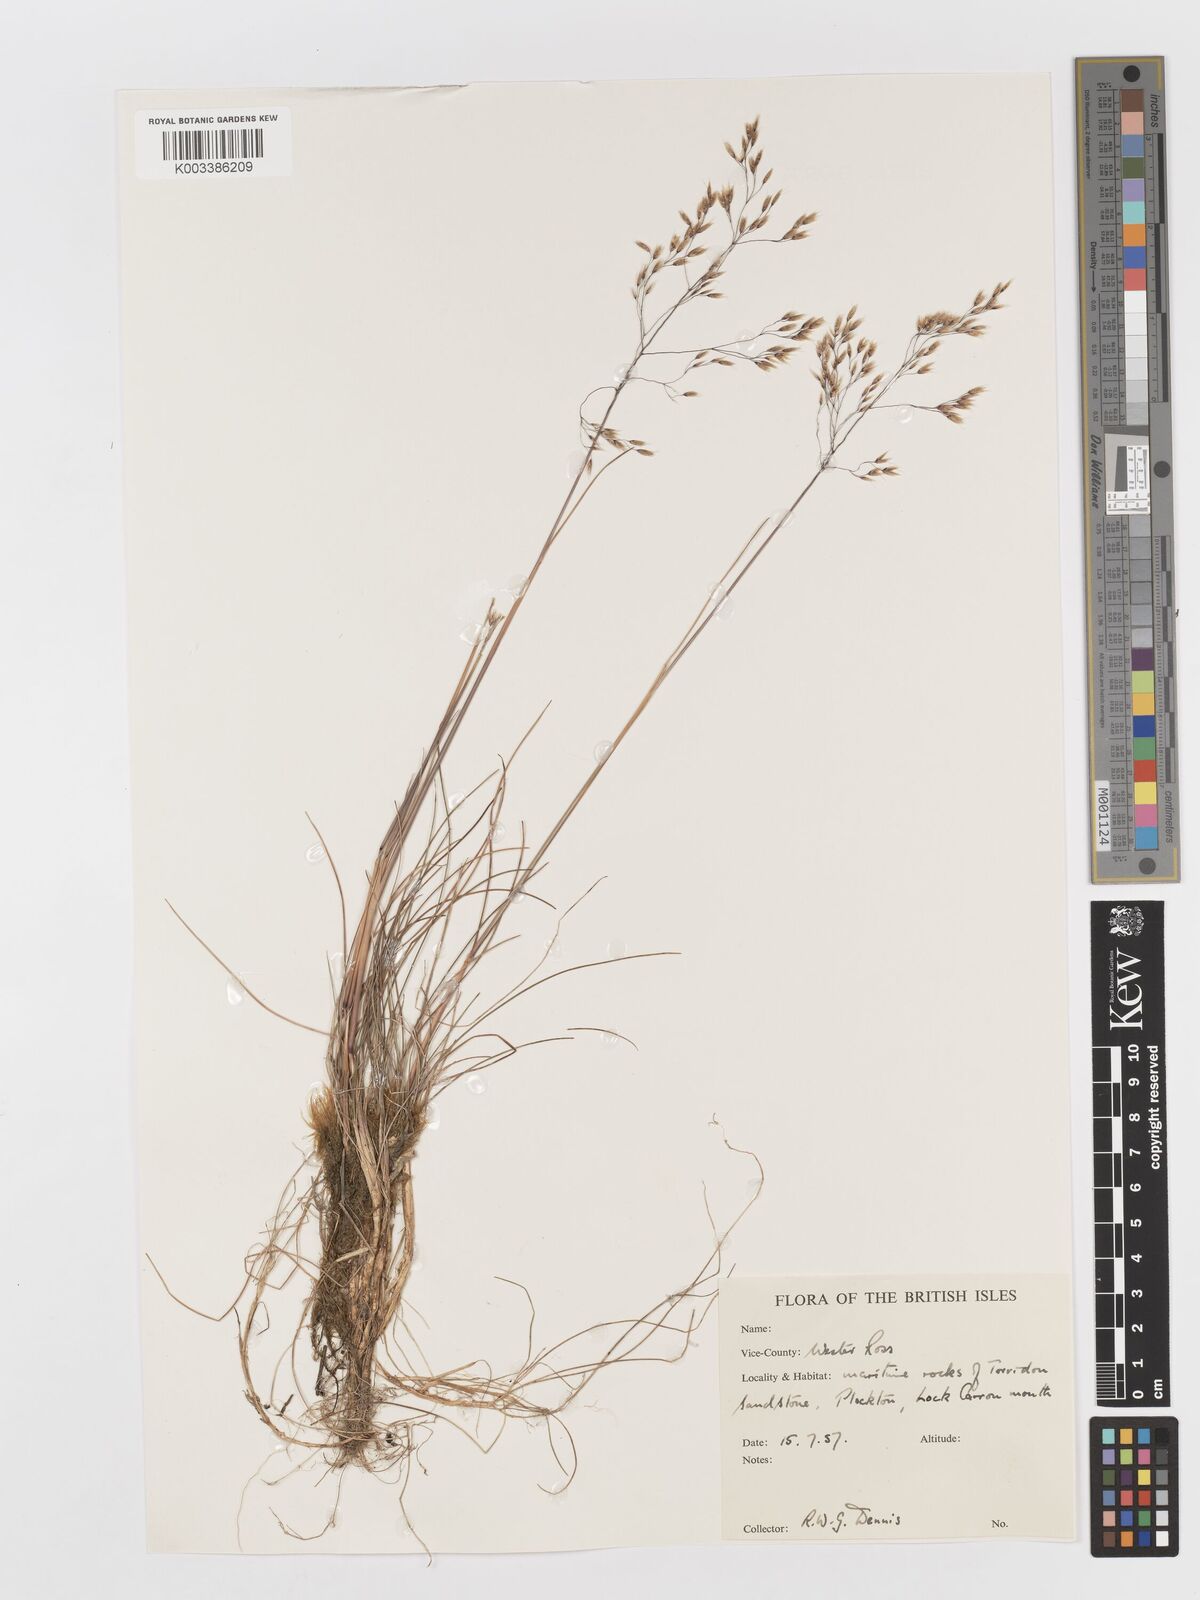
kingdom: Plantae
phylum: Tracheophyta
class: Liliopsida
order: Poales
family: Poaceae
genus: Deschampsia
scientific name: Deschampsia
